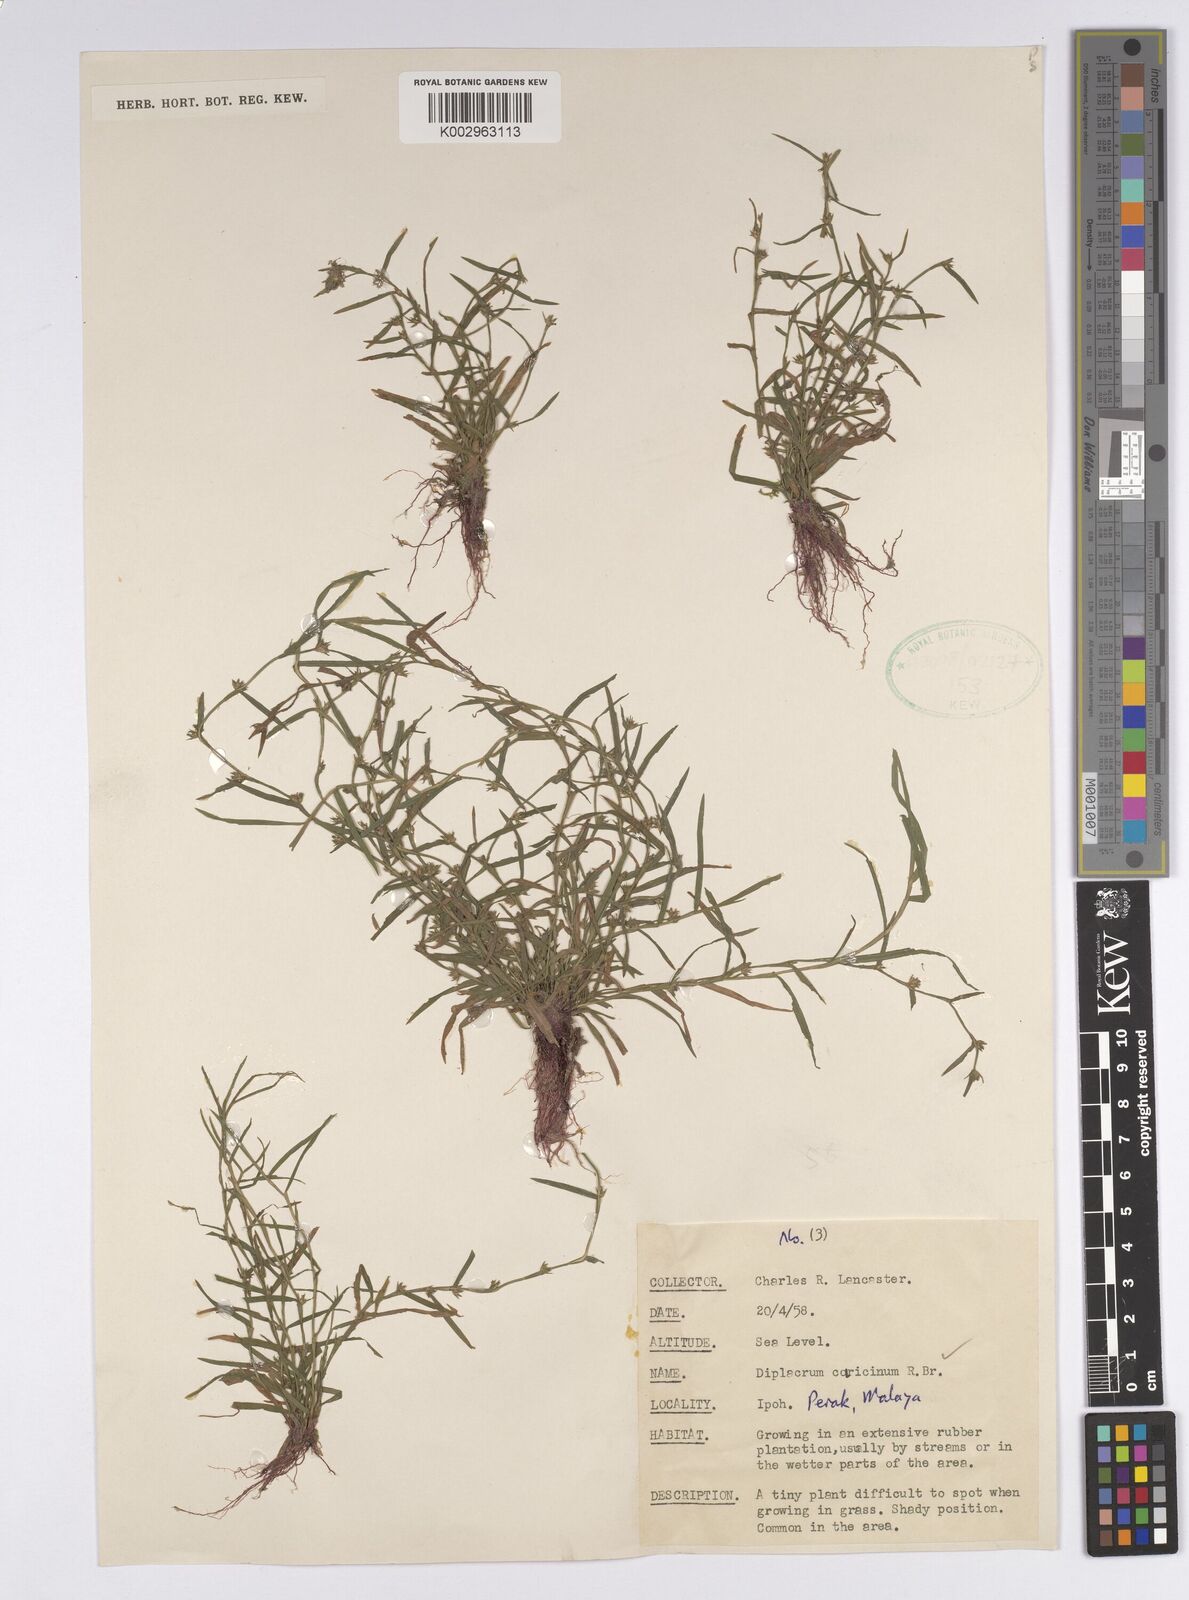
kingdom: Plantae
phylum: Tracheophyta
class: Liliopsida
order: Poales
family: Cyperaceae
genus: Diplacrum
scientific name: Diplacrum caricinum
